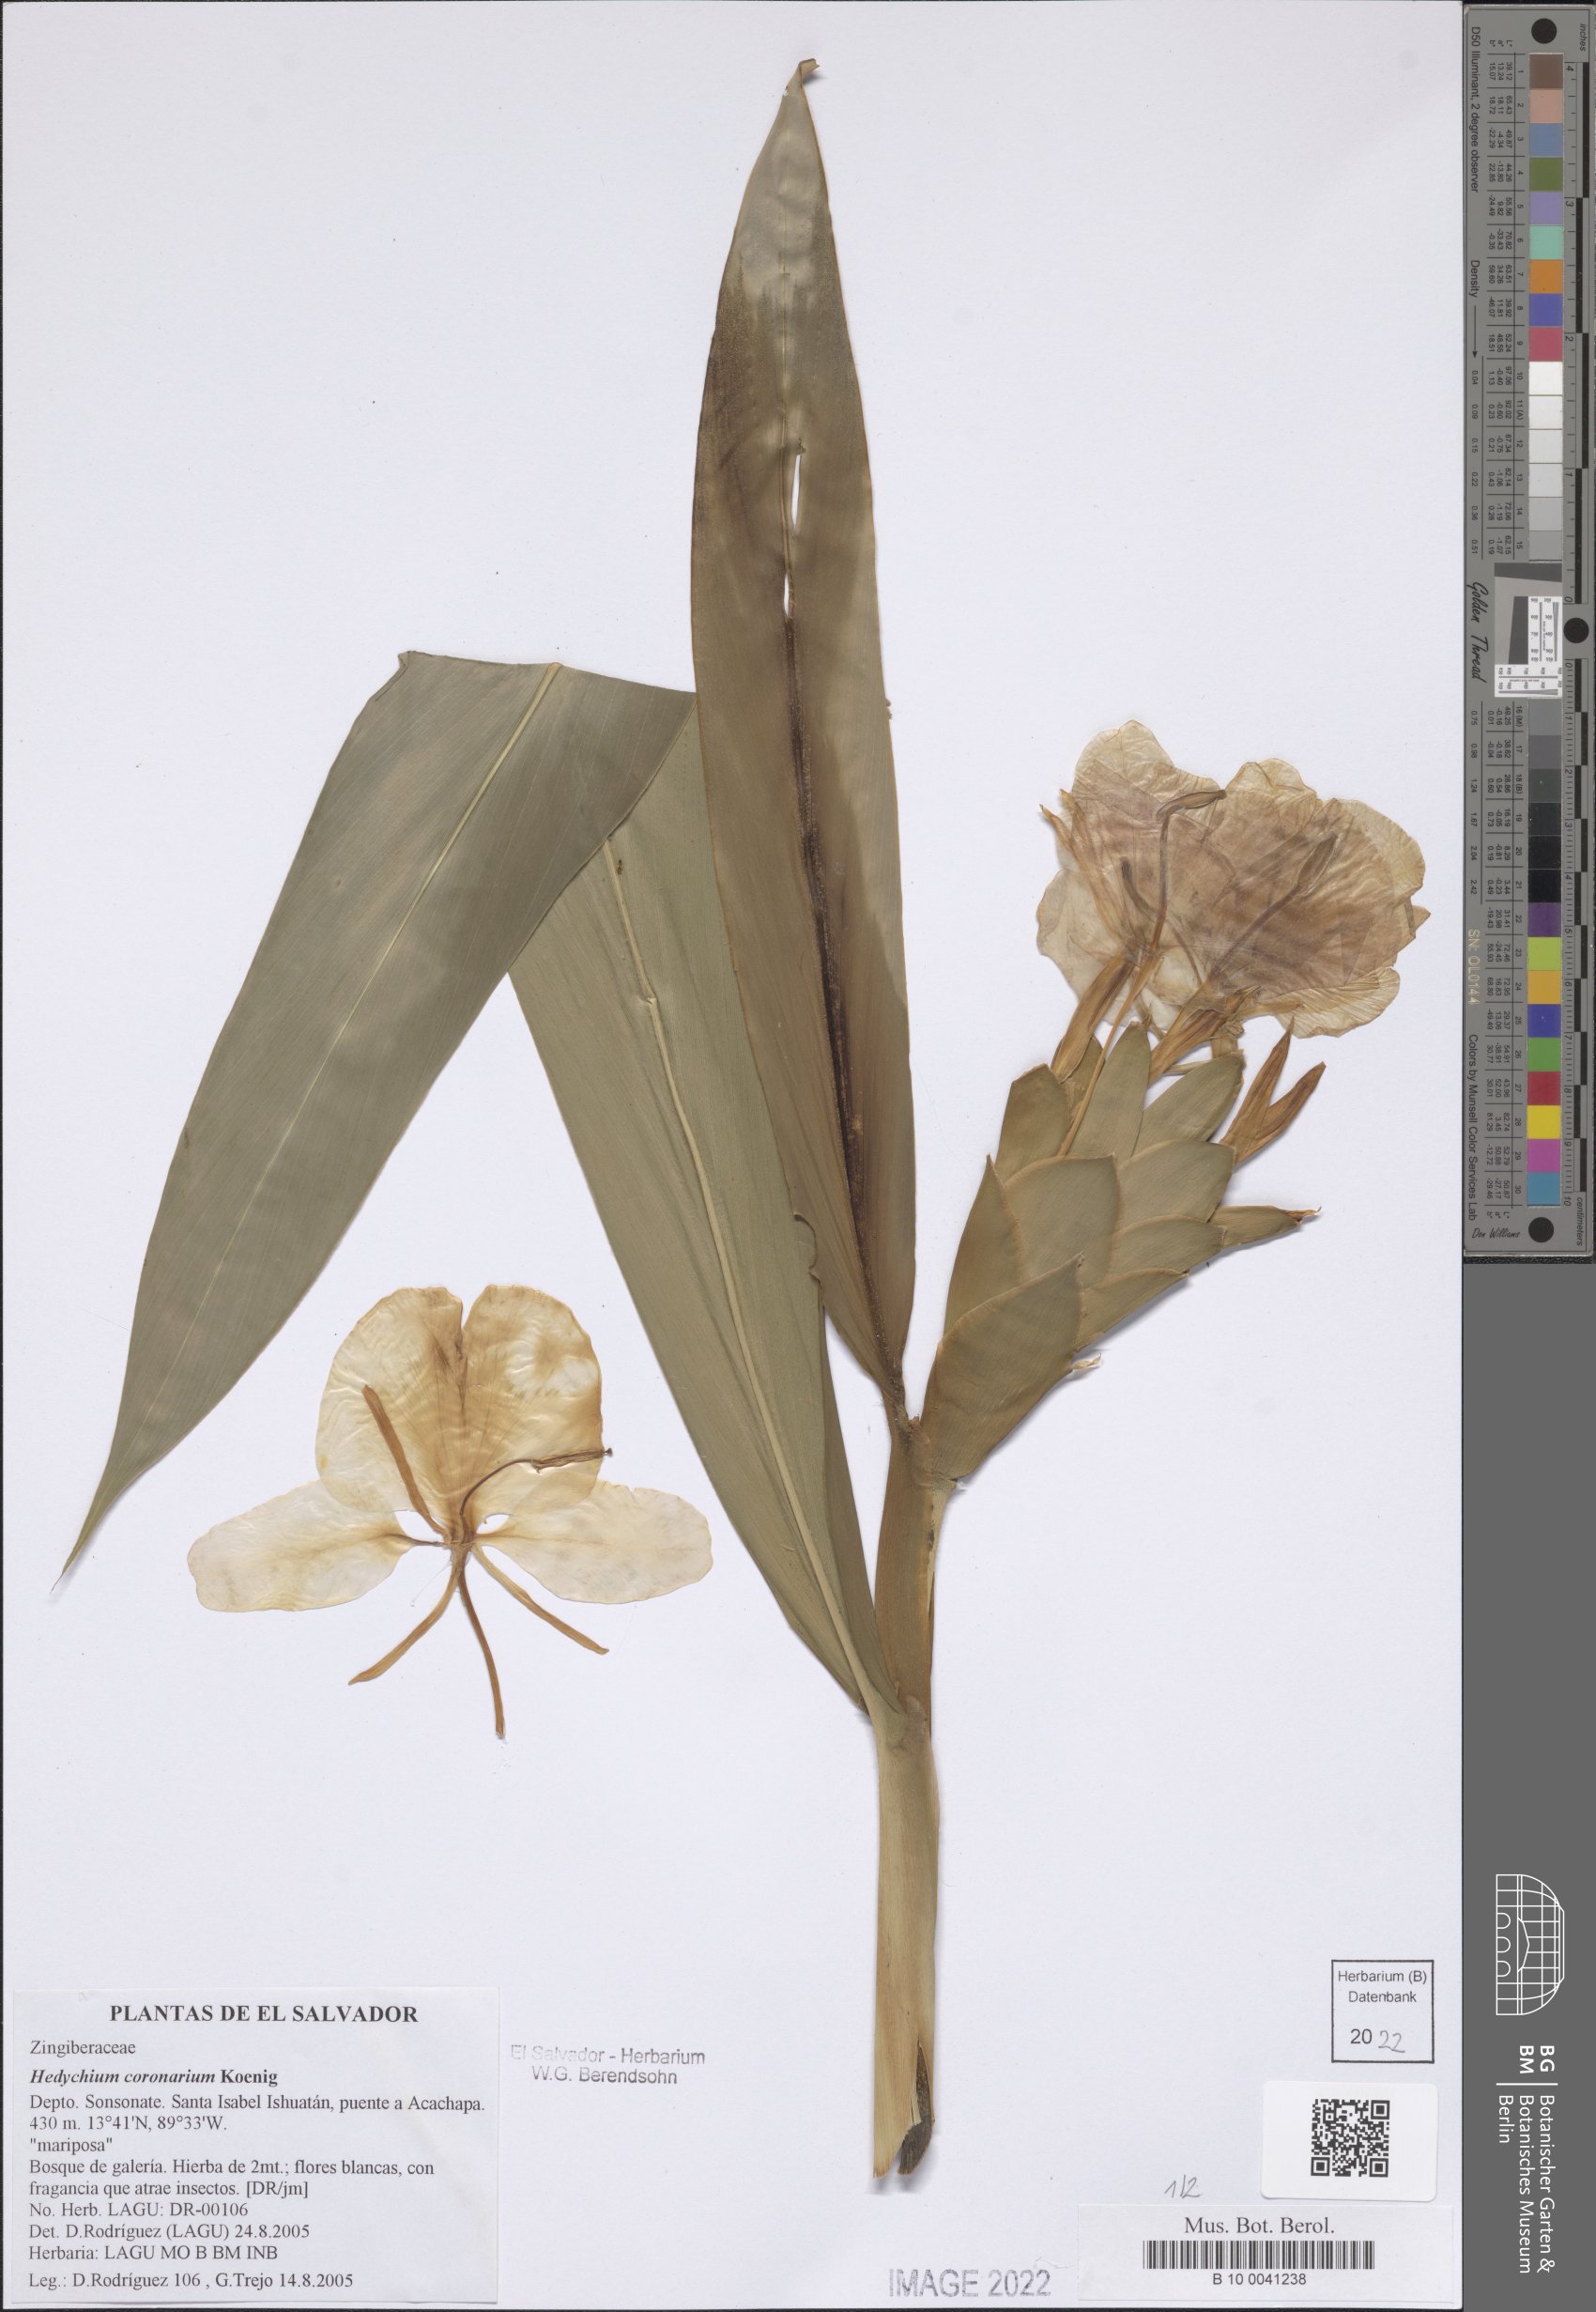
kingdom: Plantae
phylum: Tracheophyta
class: Liliopsida
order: Zingiberales
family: Zingiberaceae
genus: Hedychium
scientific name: Hedychium coronarium
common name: White garland-lily
